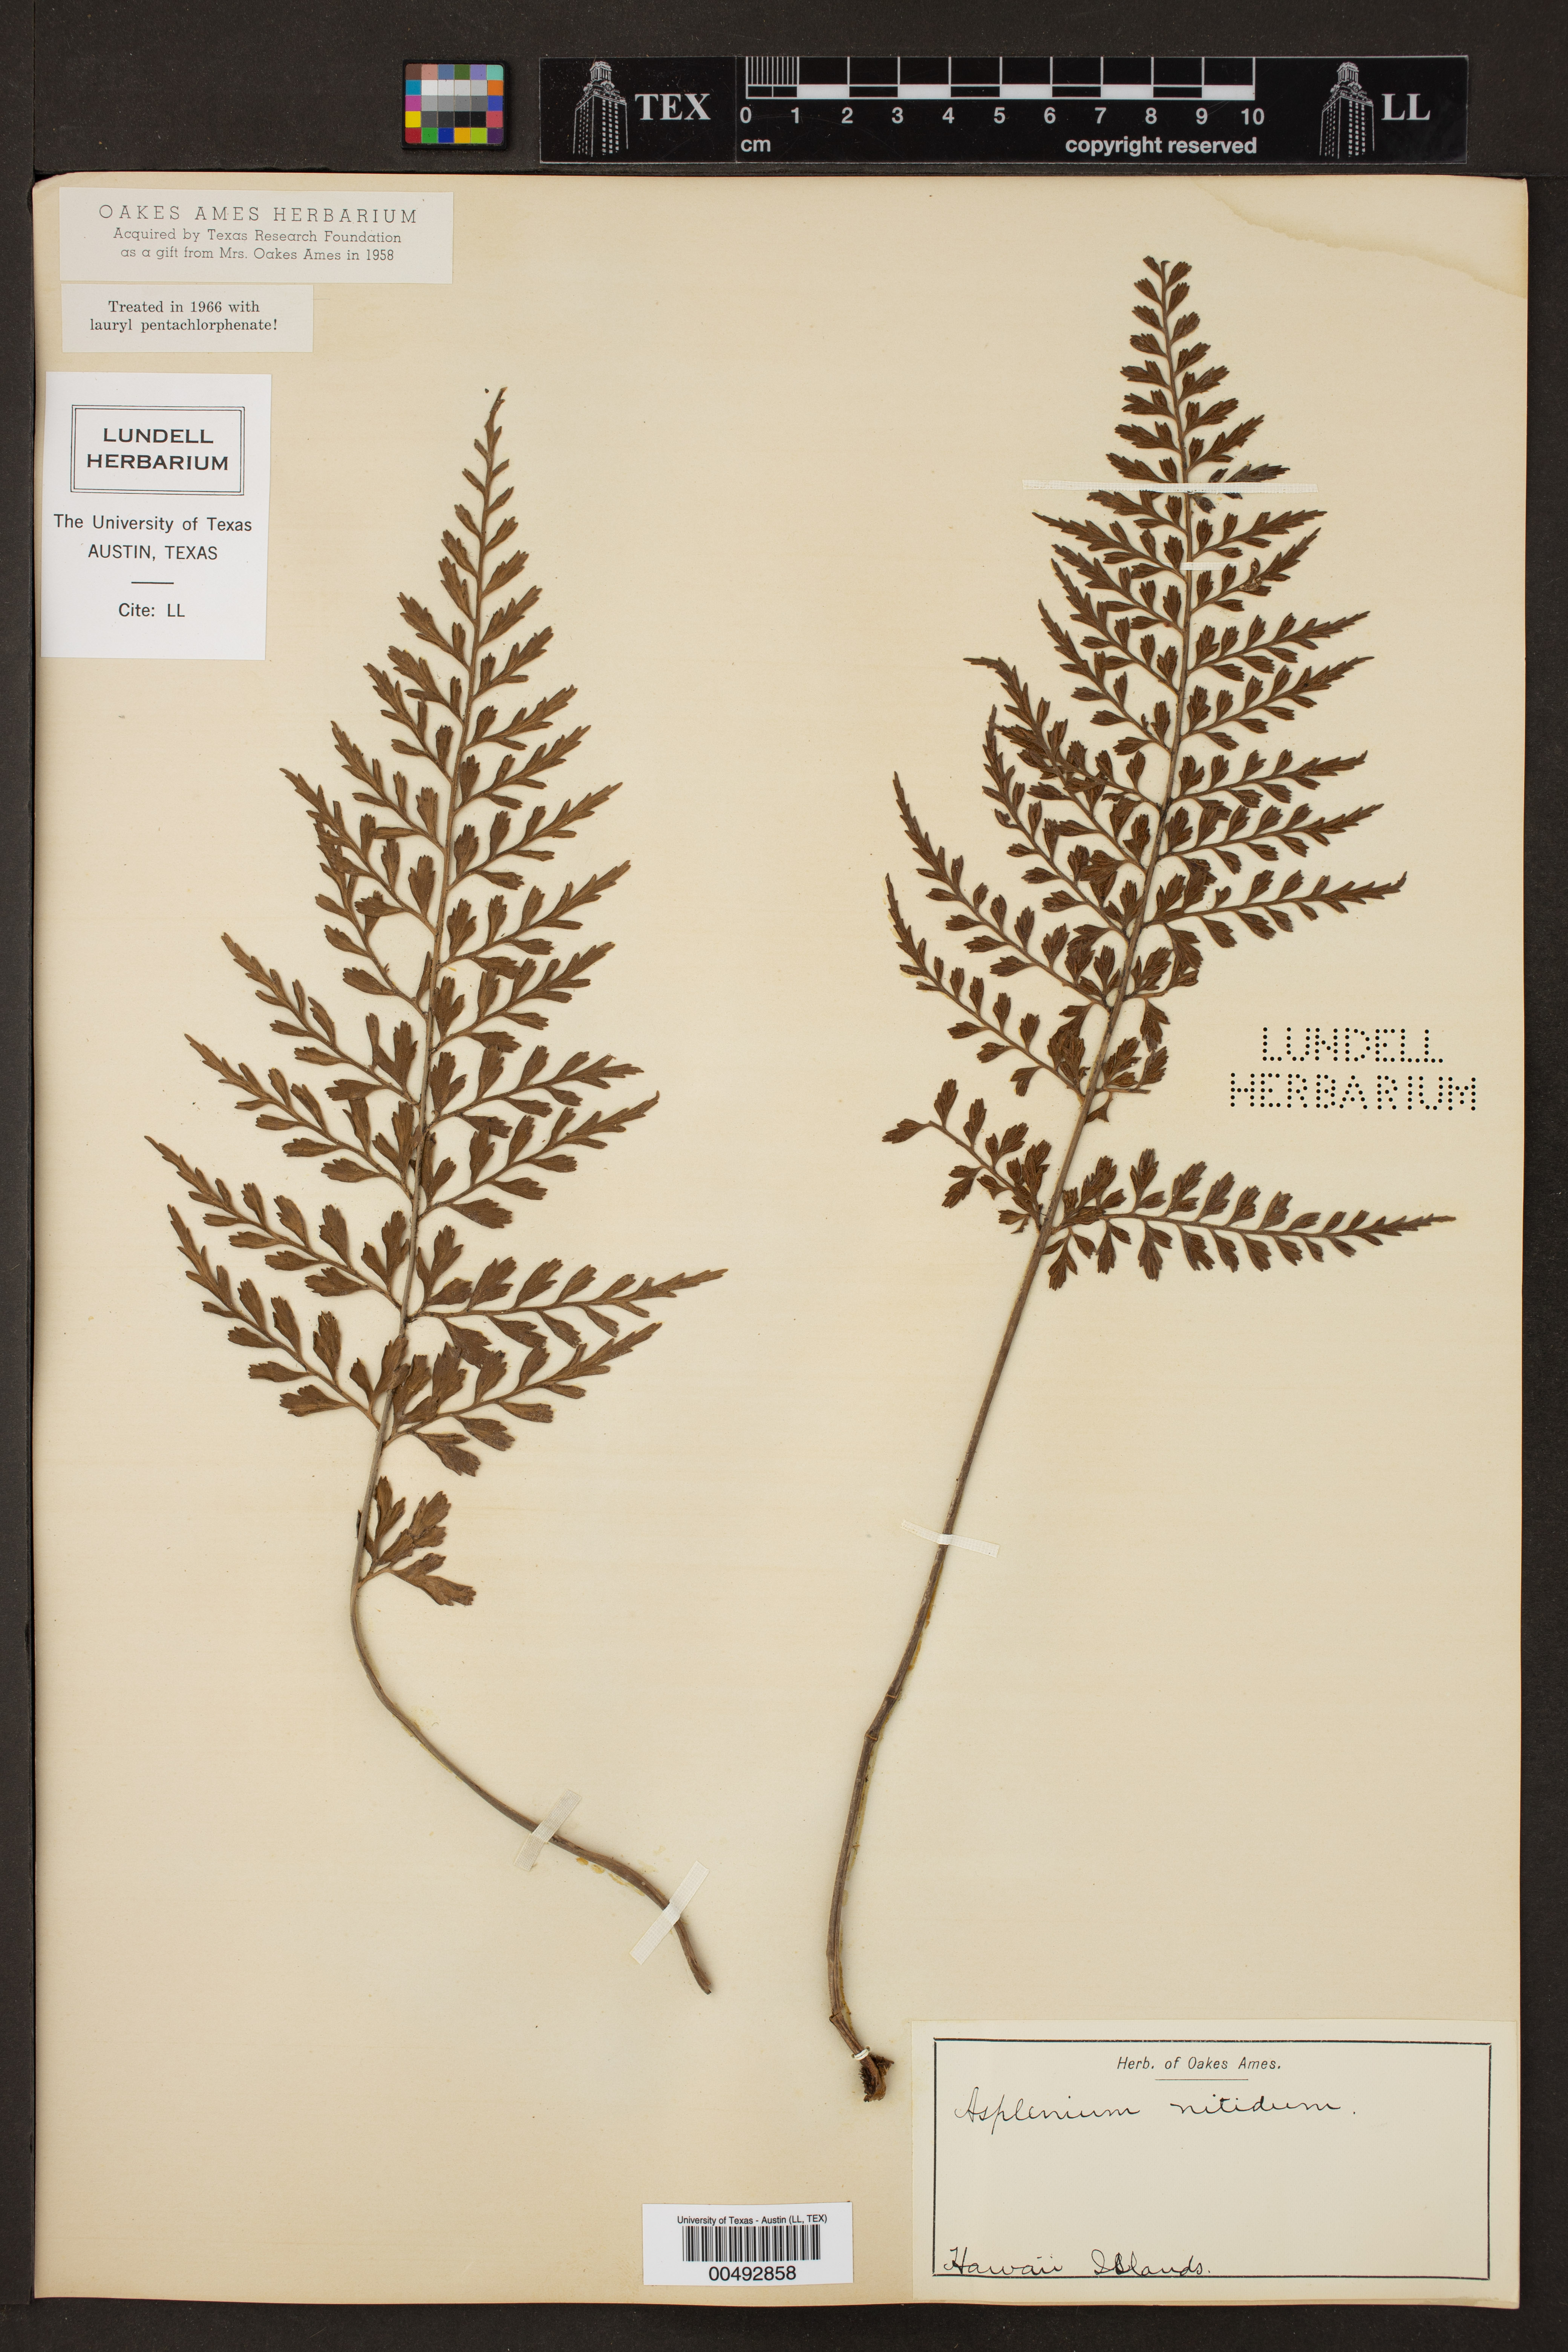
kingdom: Plantae
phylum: Tracheophyta
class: Polypodiopsida
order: Polypodiales
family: Aspleniaceae
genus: Asplenium
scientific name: Asplenium nitidum
